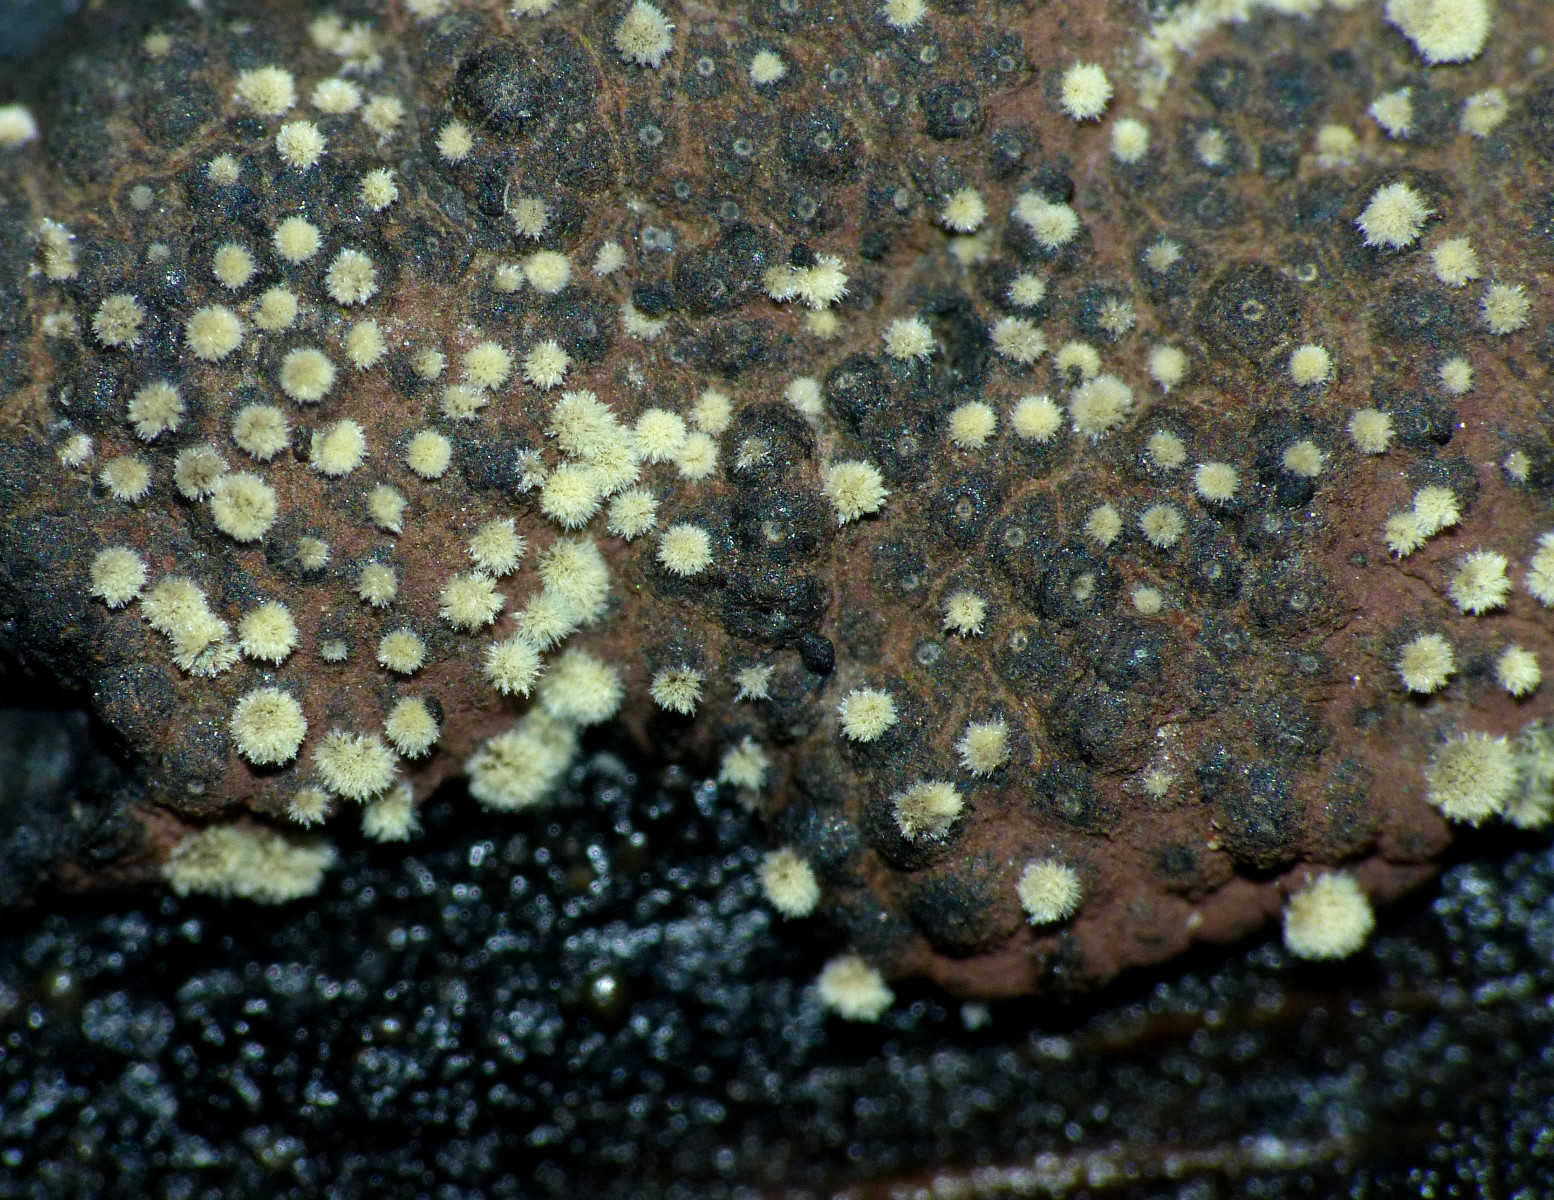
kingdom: Fungi
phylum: Ascomycota
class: Sordariomycetes
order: Xylariales
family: Hypoxylaceae
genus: Hypoxylon
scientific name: Hypoxylon rubiginosum
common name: rustfarvet kulbær
